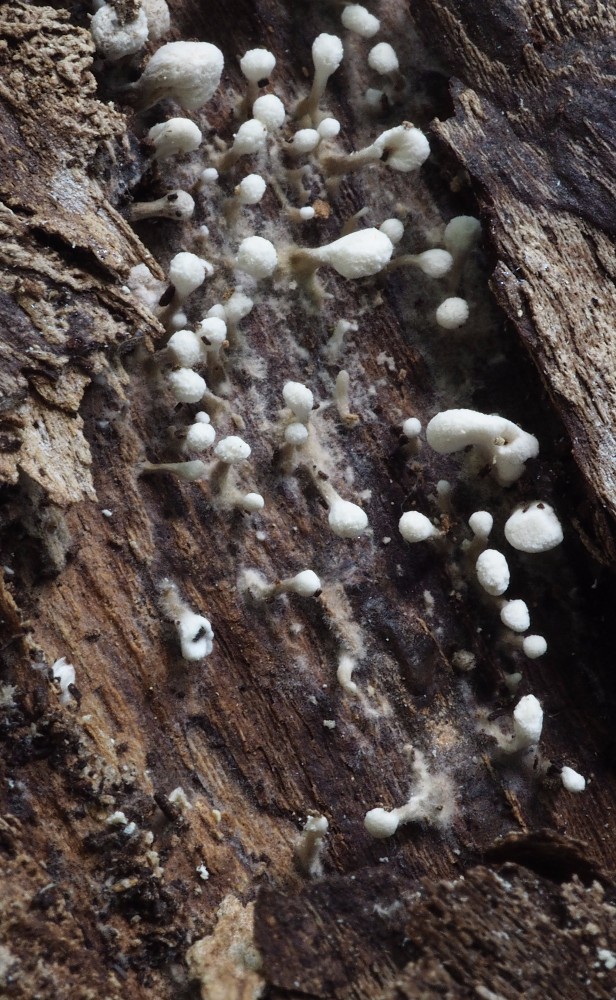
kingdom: Fungi
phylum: Basidiomycota
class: Atractiellomycetes
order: Atractiellales
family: Phleogenaceae
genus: Phleogena
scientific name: Phleogena faginea
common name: pudderkølle
